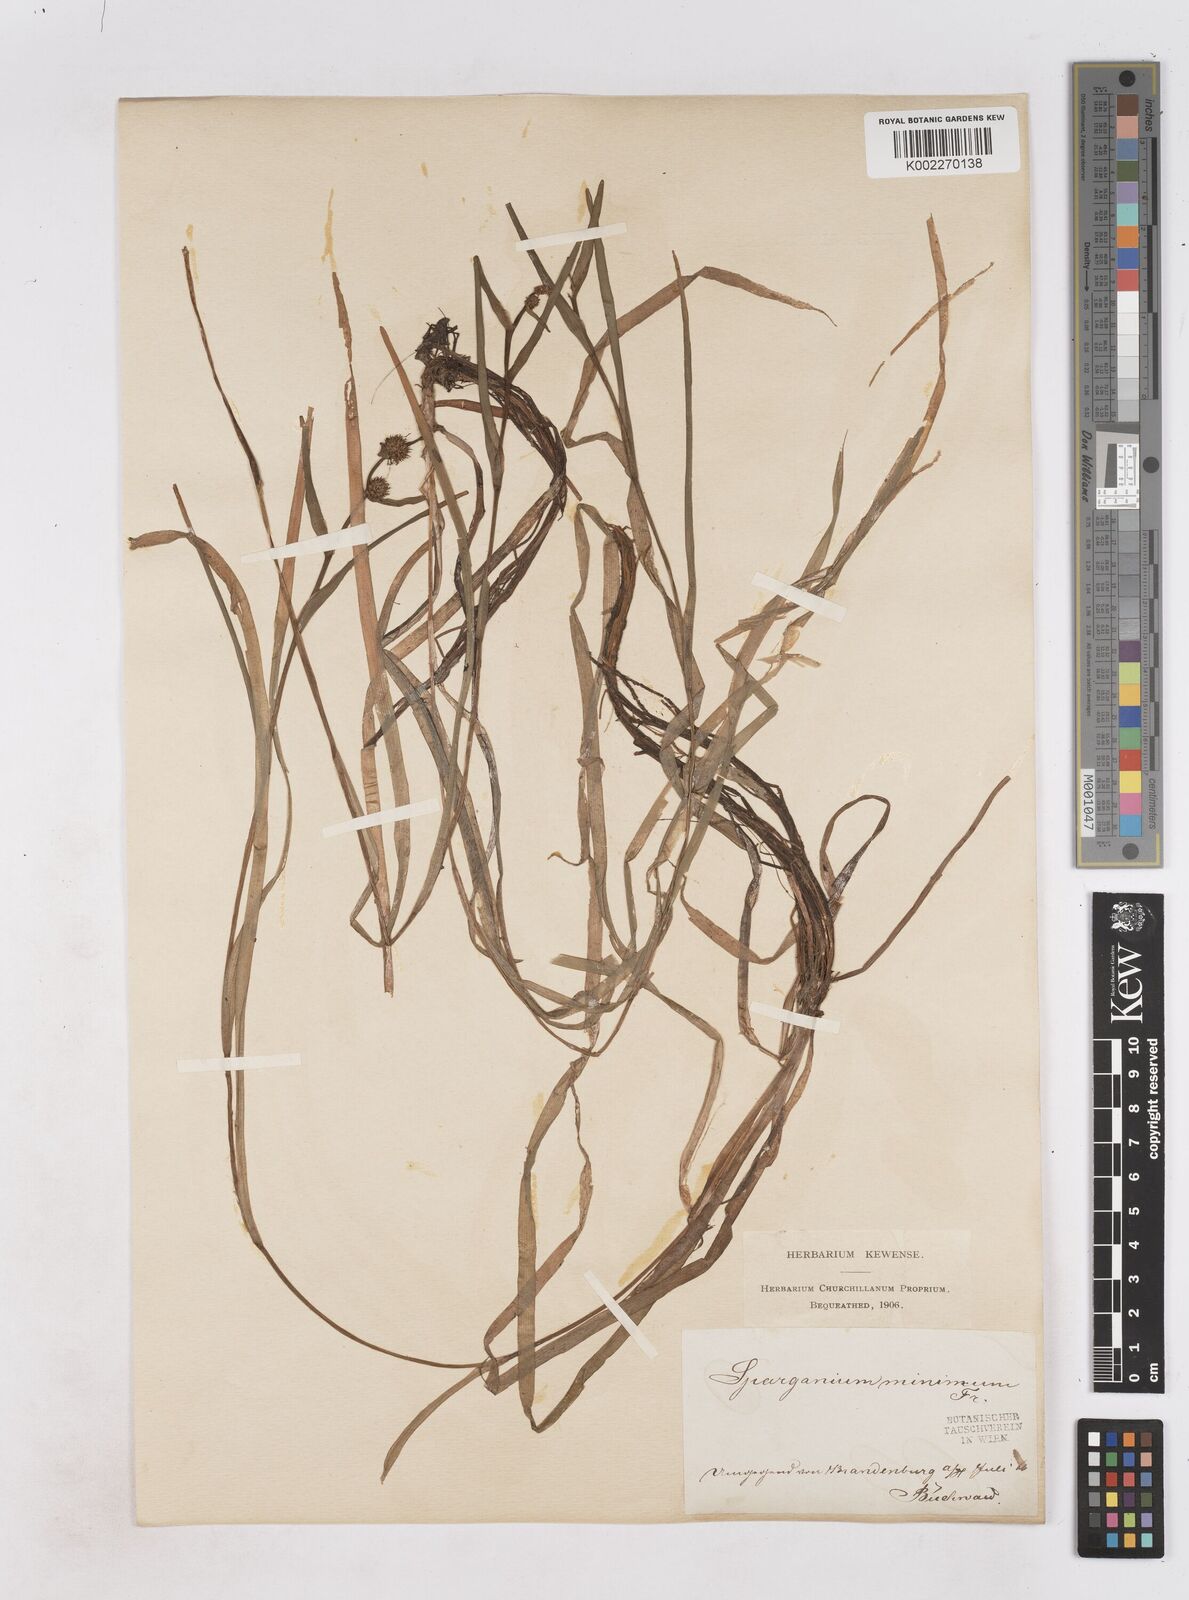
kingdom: Plantae
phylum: Tracheophyta
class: Liliopsida
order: Poales
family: Typhaceae
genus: Sparganium
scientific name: Sparganium natans
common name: Least bur-reed
